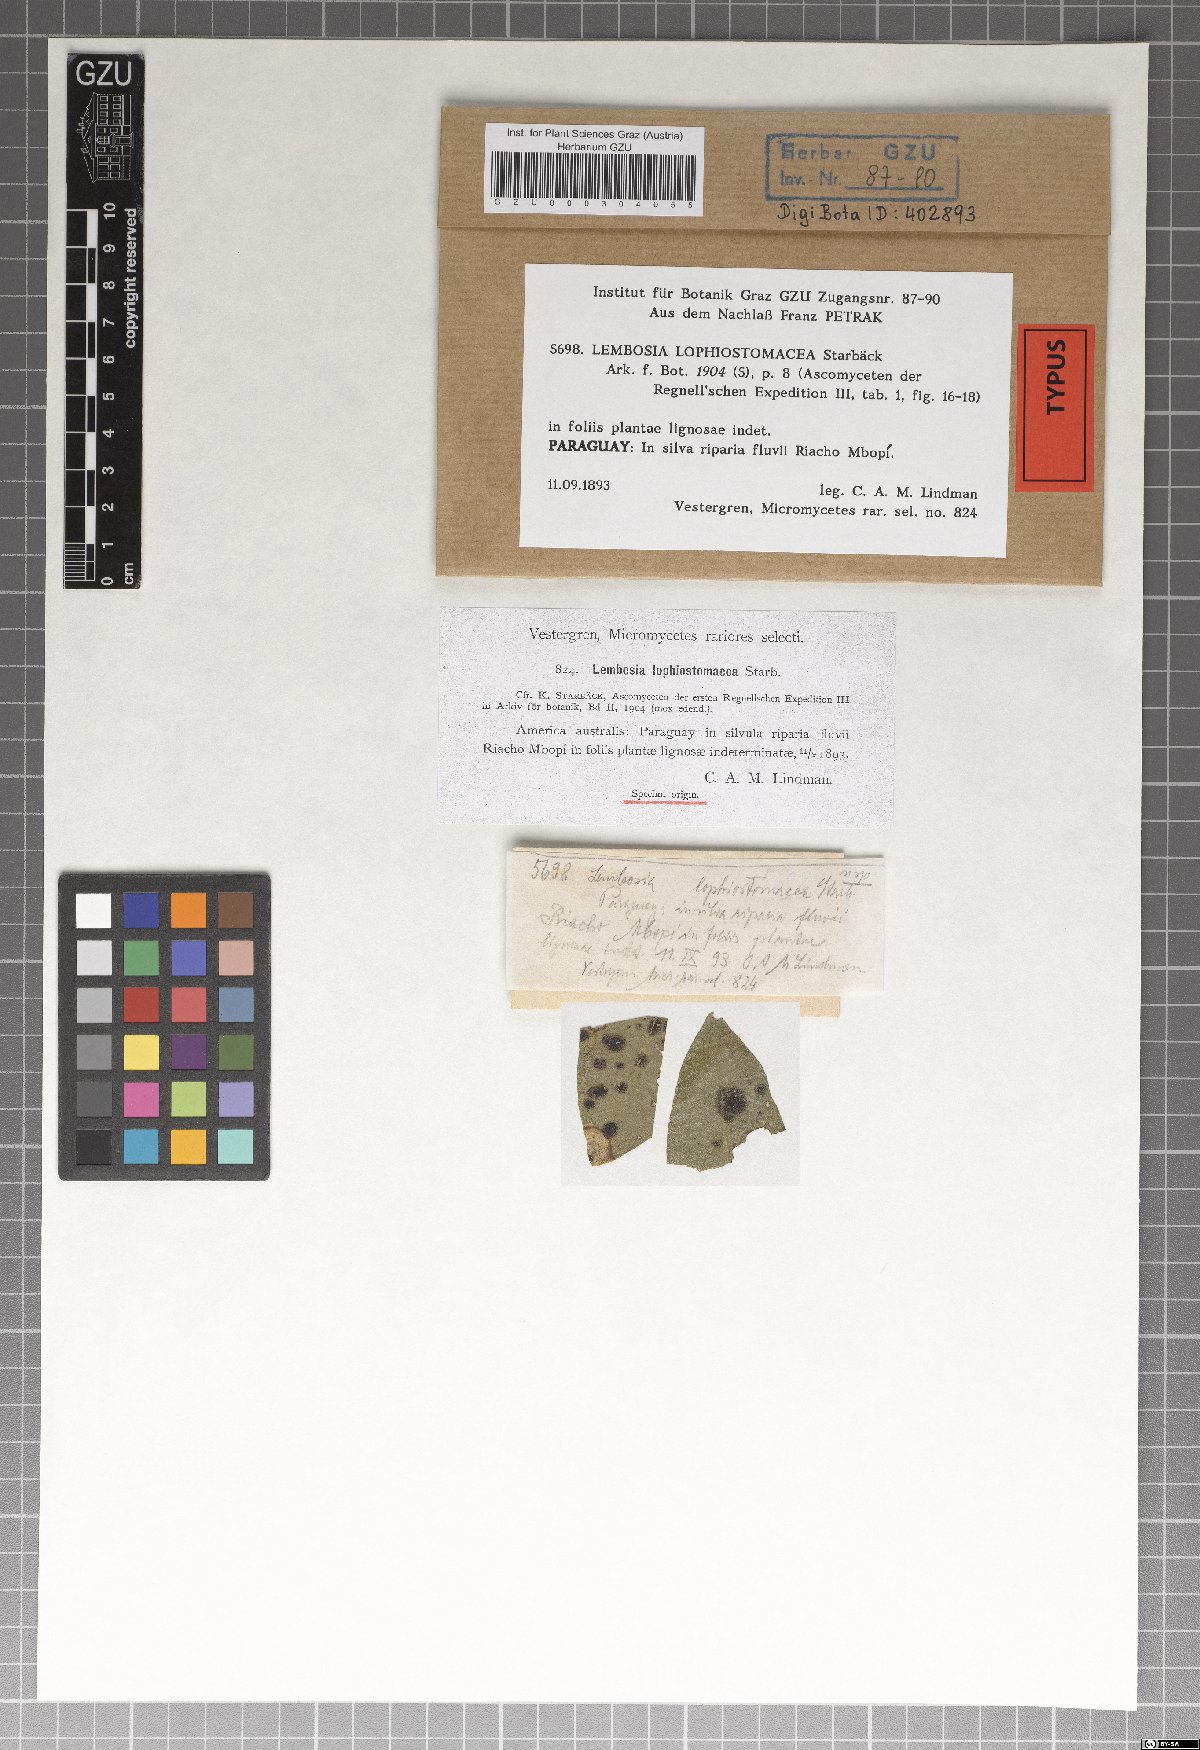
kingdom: Fungi
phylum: Ascomycota
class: Dothideomycetes
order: Asterinales
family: Asterinaceae
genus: Lembosia
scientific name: Lembosia lophiostomacea
